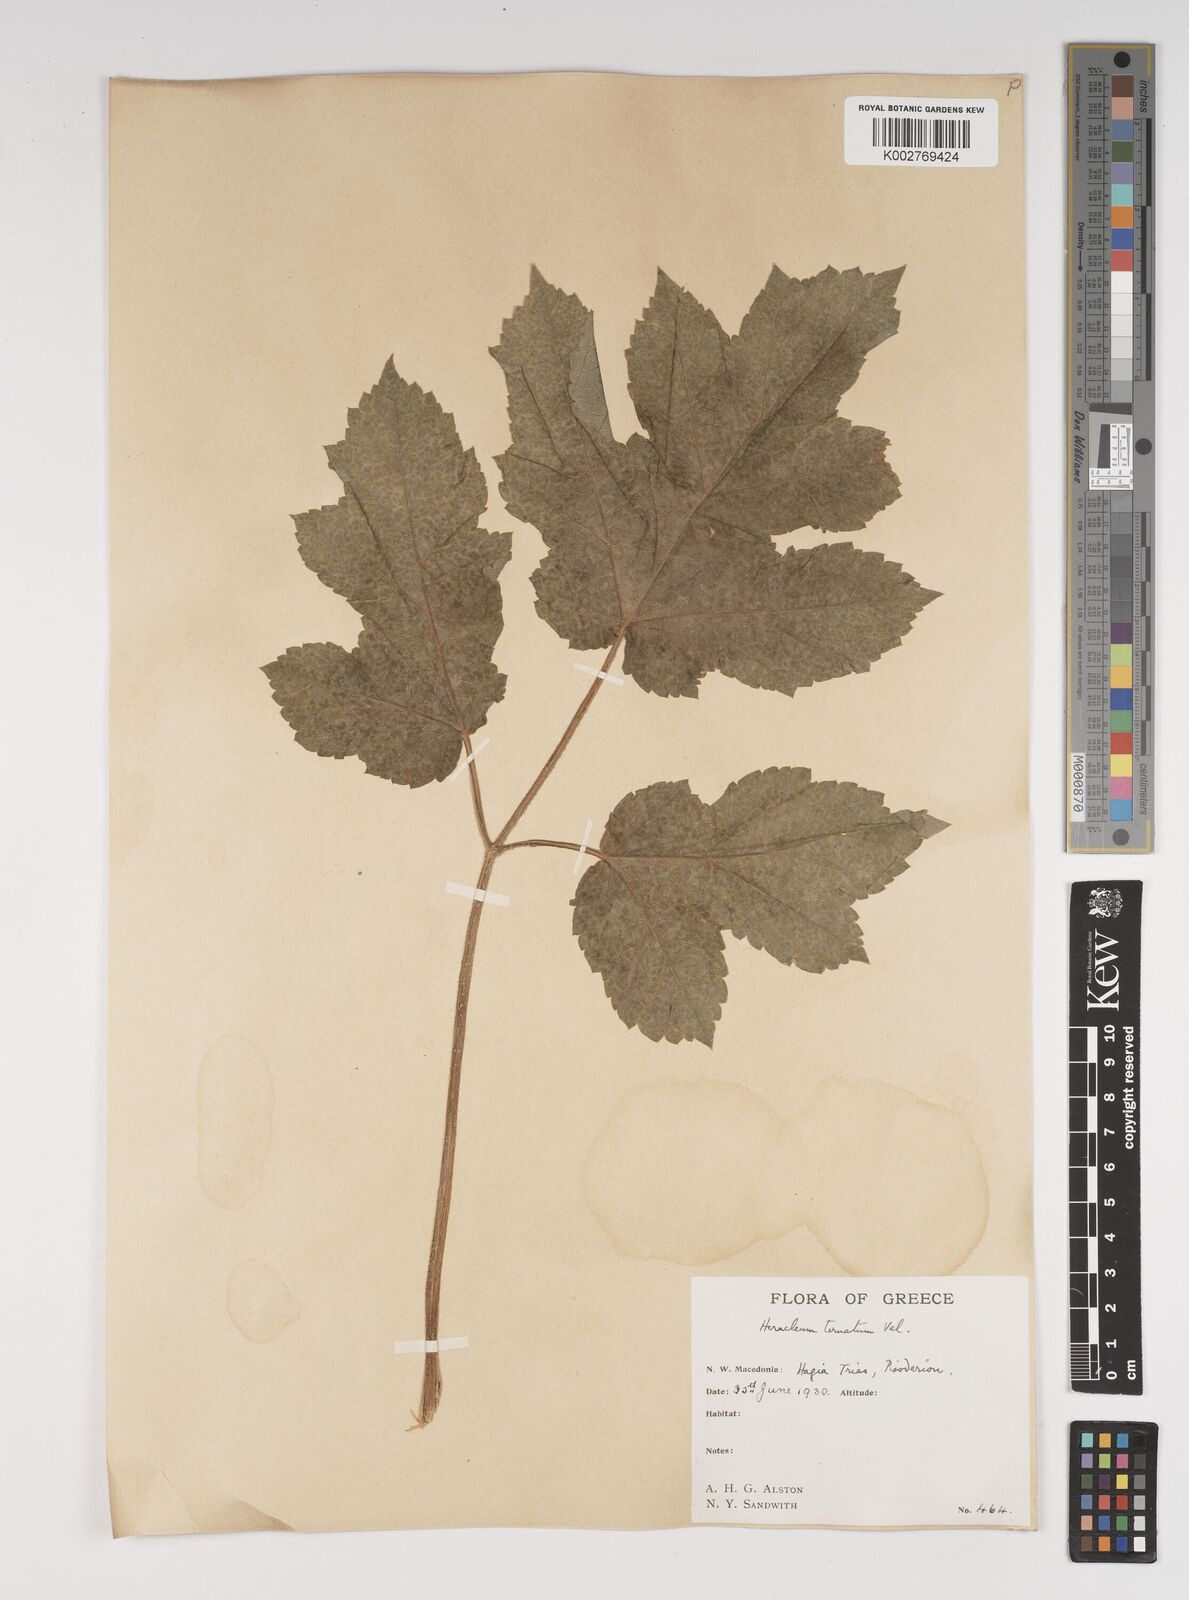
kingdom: Plantae
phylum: Tracheophyta
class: Magnoliopsida
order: Apiales
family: Apiaceae
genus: Heracleum
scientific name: Heracleum sphondylium
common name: Hogweed
